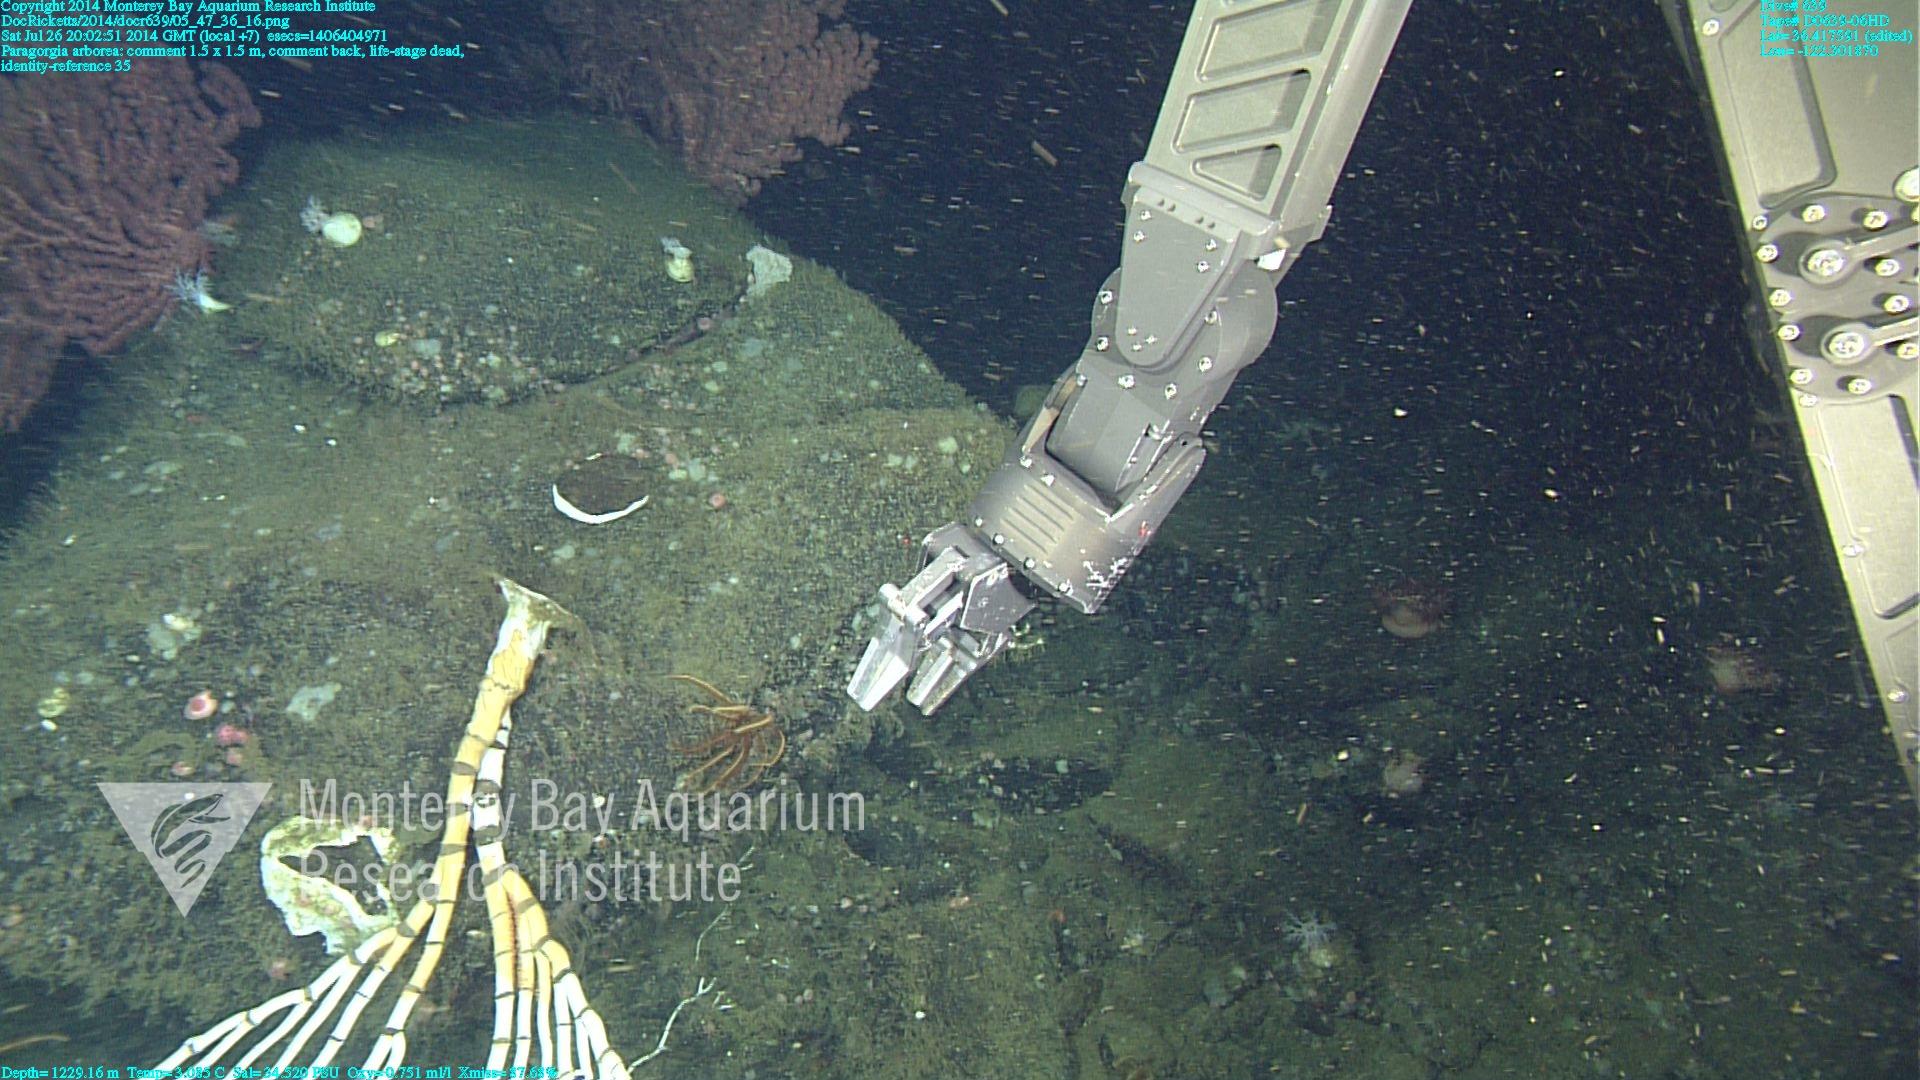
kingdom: Animalia
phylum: Cnidaria
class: Anthozoa
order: Scleralcyonacea
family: Coralliidae
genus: Paragorgia
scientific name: Paragorgia arborea
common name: Bubble gum coral
